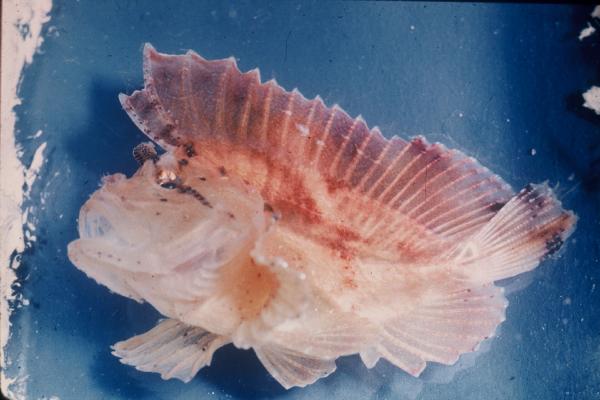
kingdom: Animalia
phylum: Chordata
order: Scorpaeniformes
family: Scorpaenidae
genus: Taenianotus
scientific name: Taenianotus triacanthus
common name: Leaf scorpionfish
